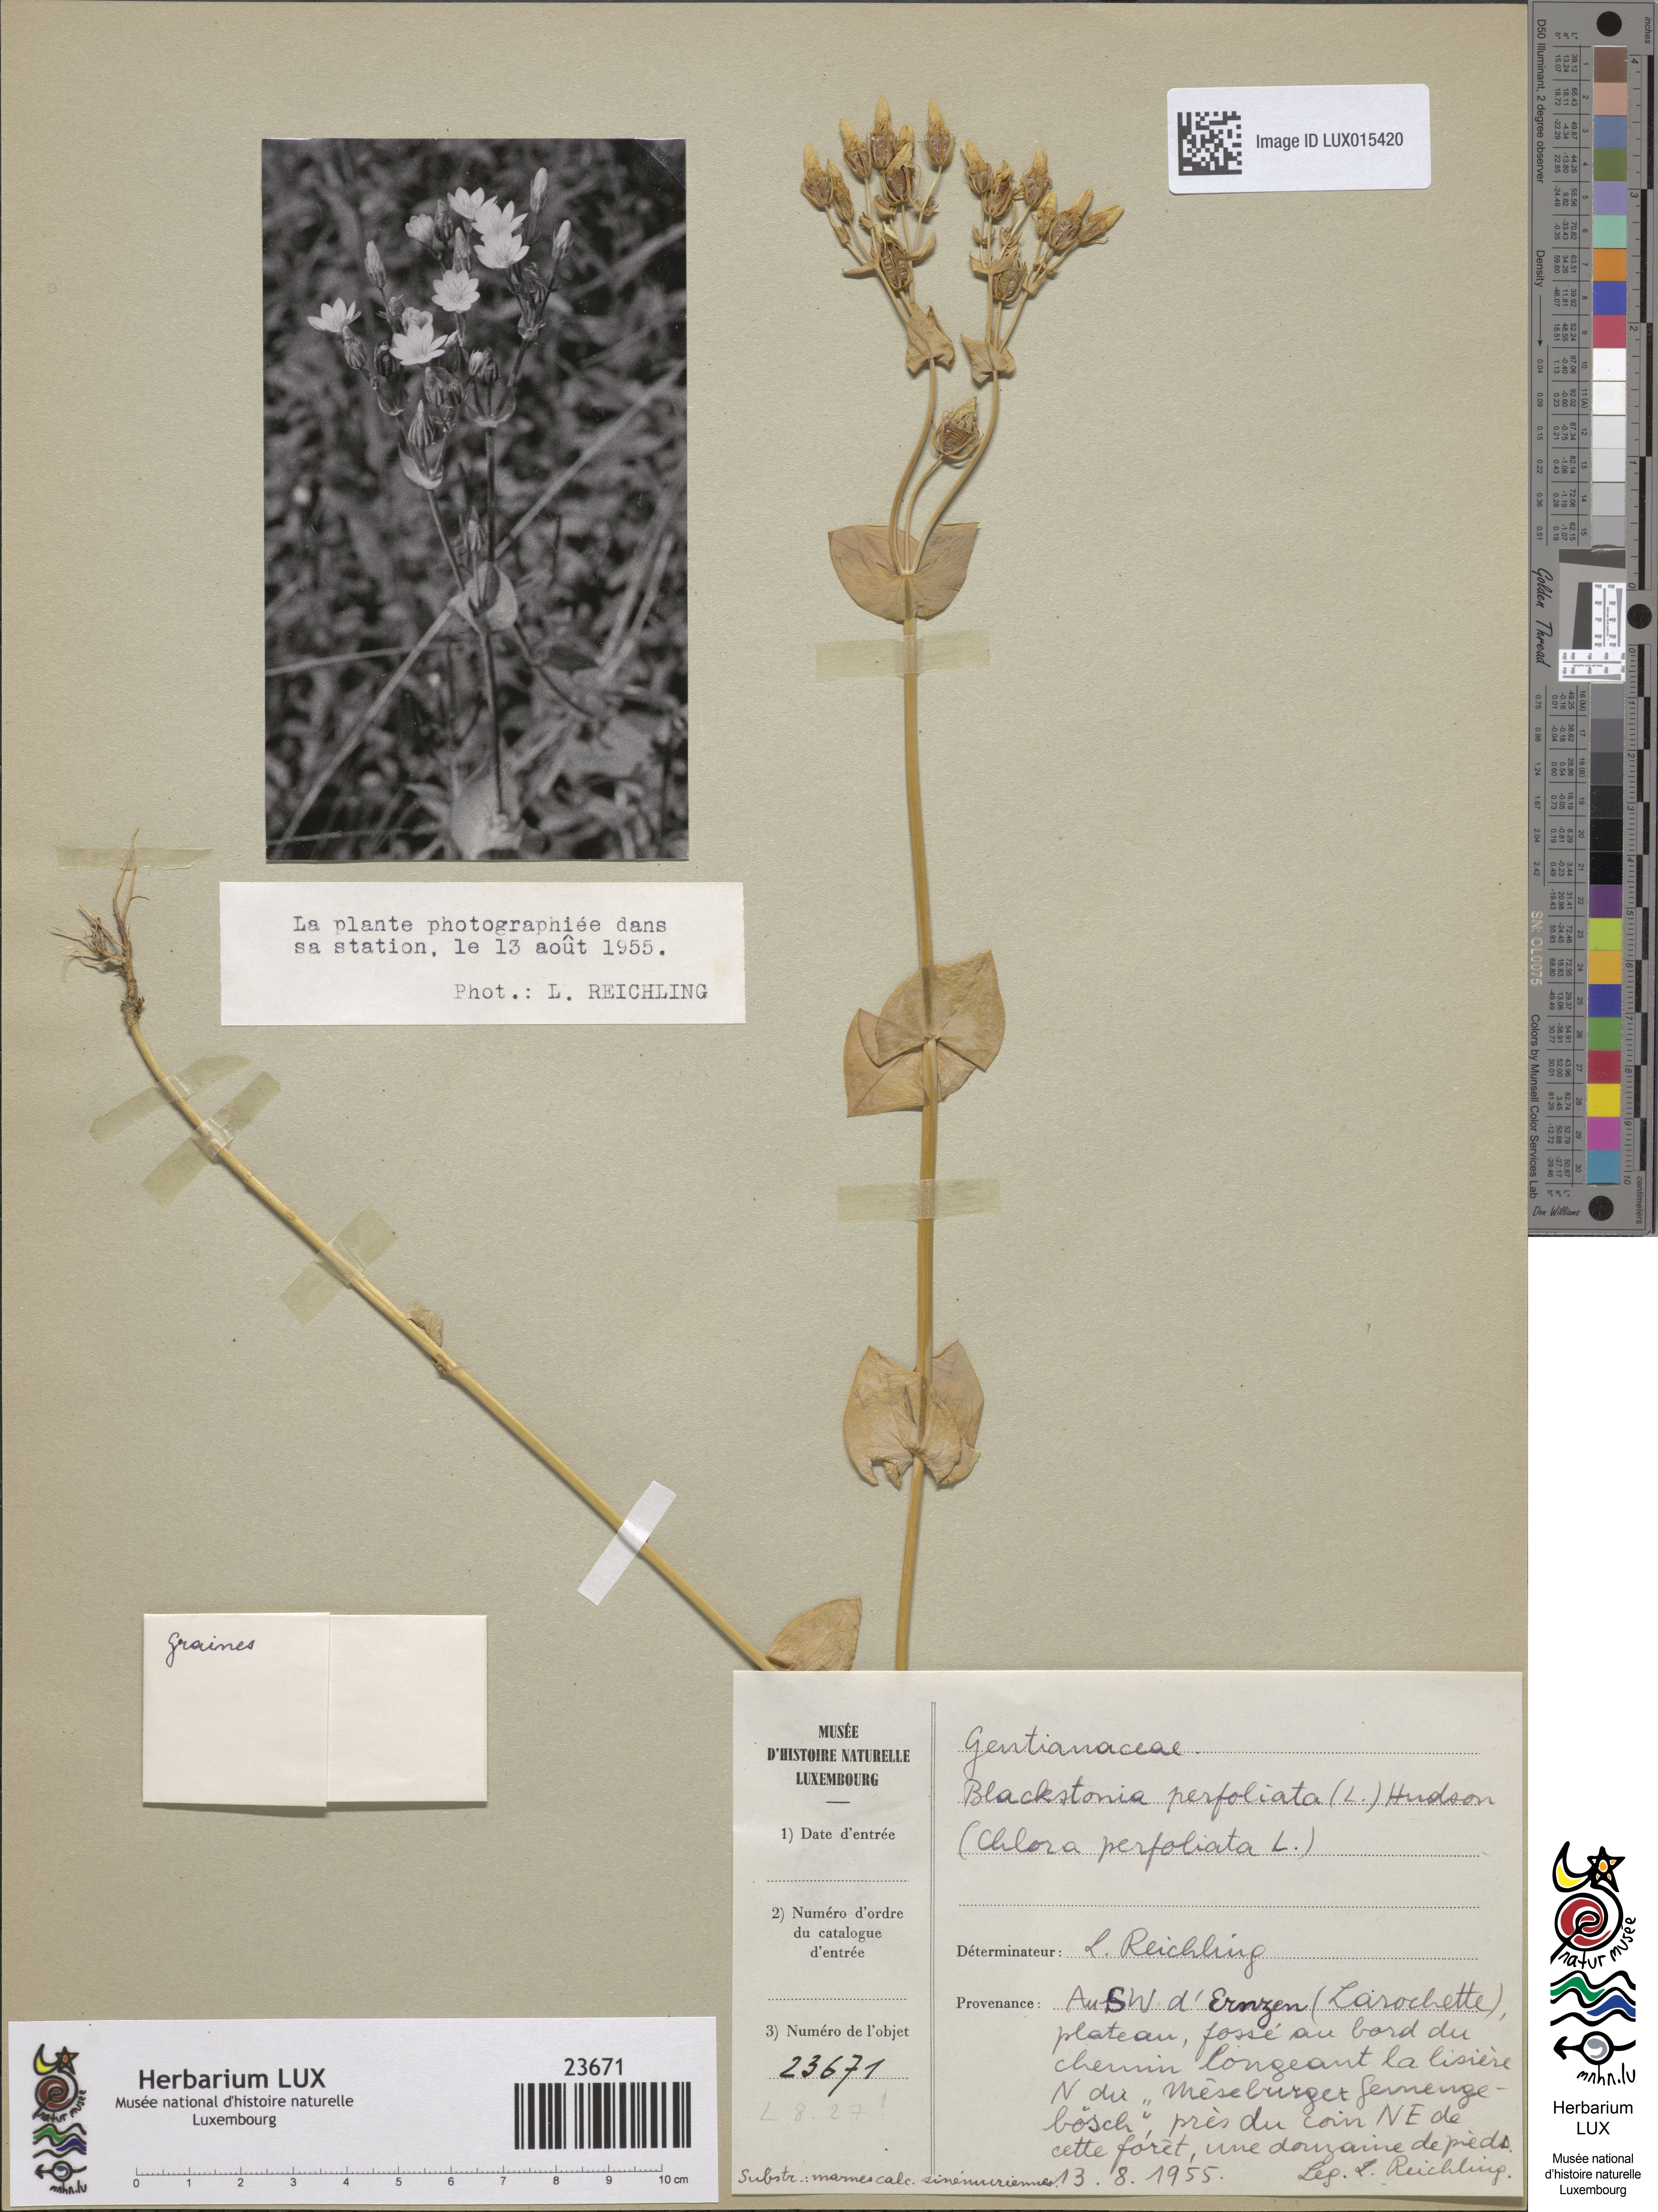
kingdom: Plantae
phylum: Tracheophyta
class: Magnoliopsida
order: Gentianales
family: Gentianaceae
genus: Blackstonia
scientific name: Blackstonia perfoliata
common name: Yellow-wort
